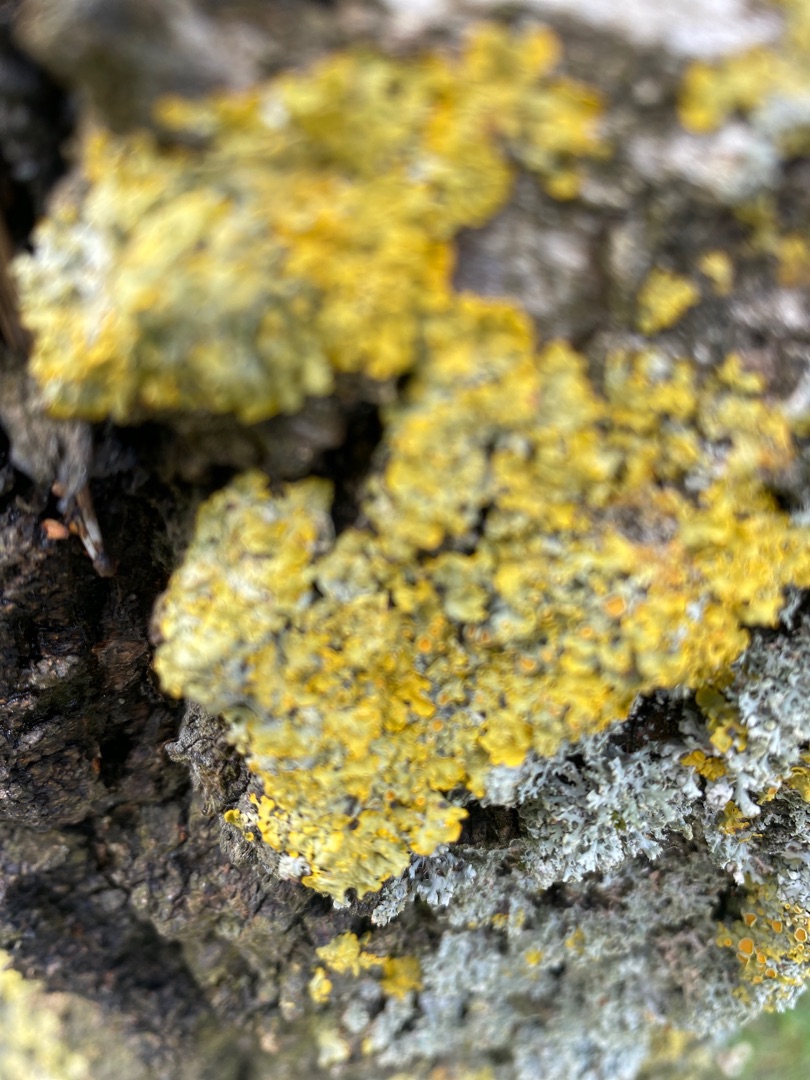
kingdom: Fungi
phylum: Ascomycota
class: Lecanoromycetes
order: Teloschistales
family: Teloschistaceae
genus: Xanthoria
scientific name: Xanthoria parietina
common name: Almindelig væggelav
